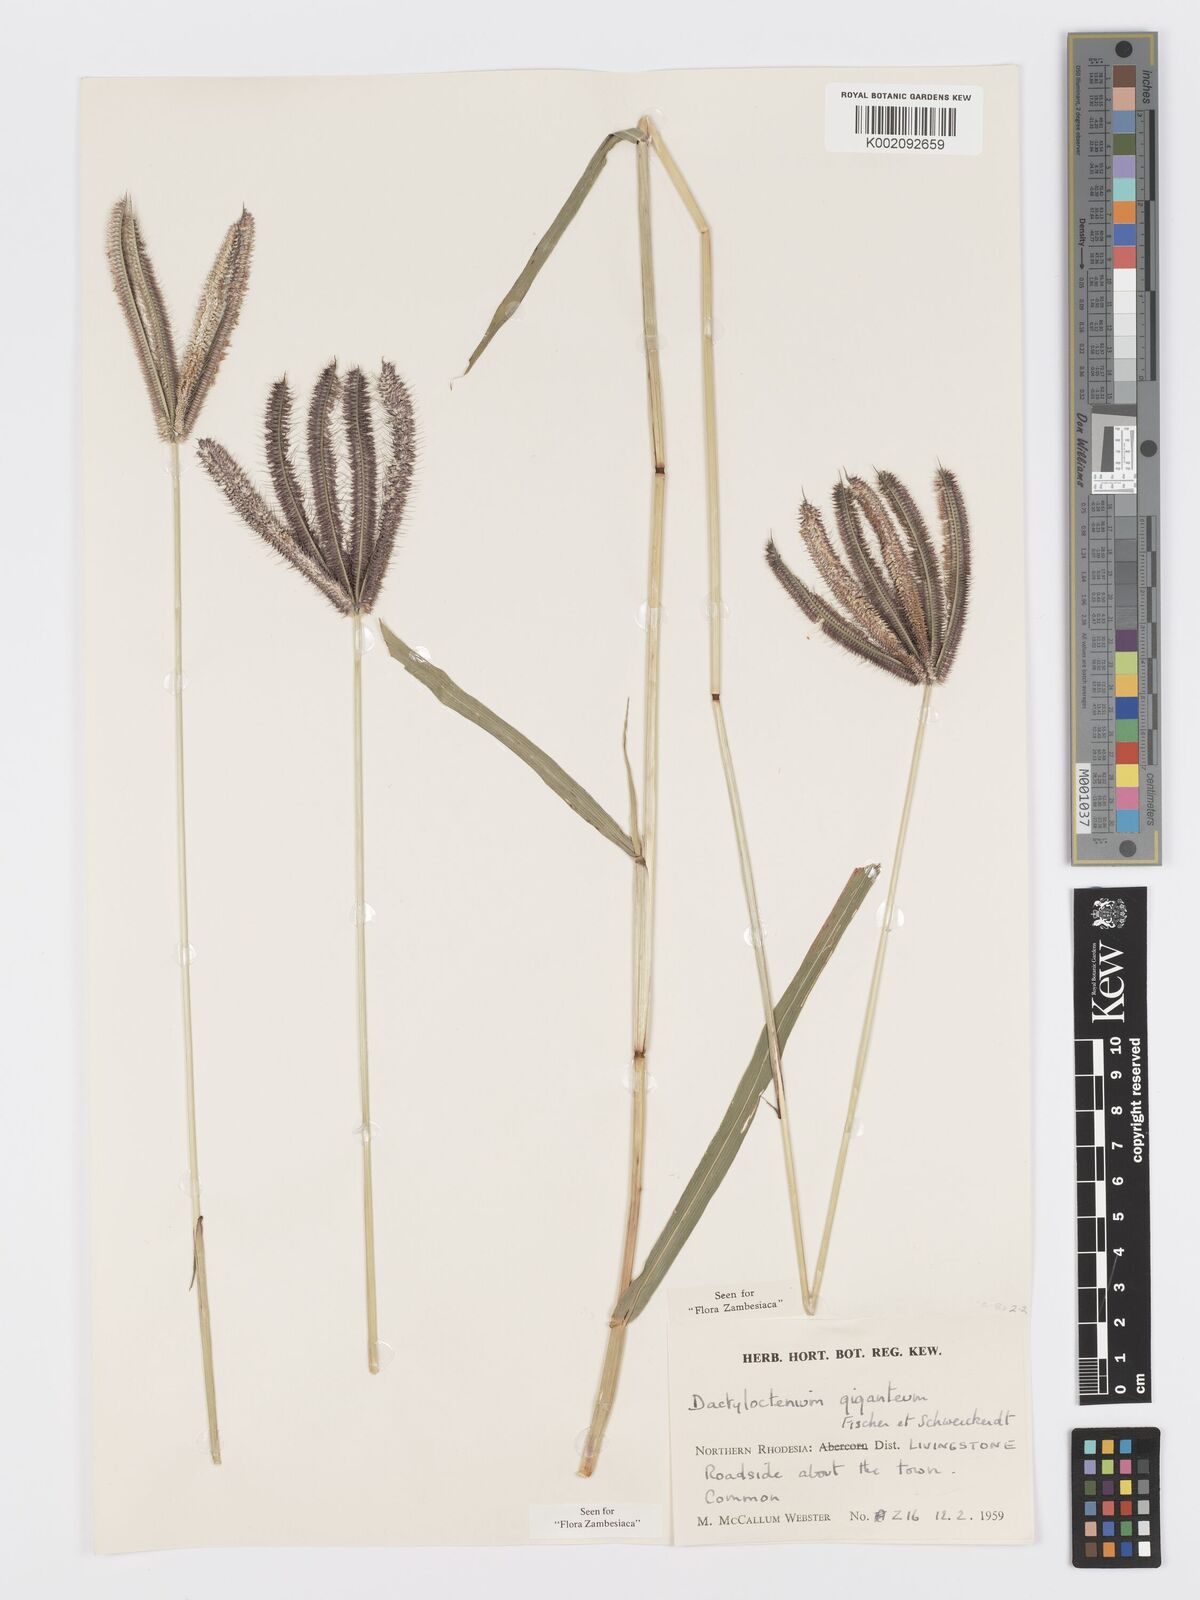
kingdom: Plantae
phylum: Tracheophyta
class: Liliopsida
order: Poales
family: Poaceae
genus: Dactyloctenium
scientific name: Dactyloctenium giganteum
